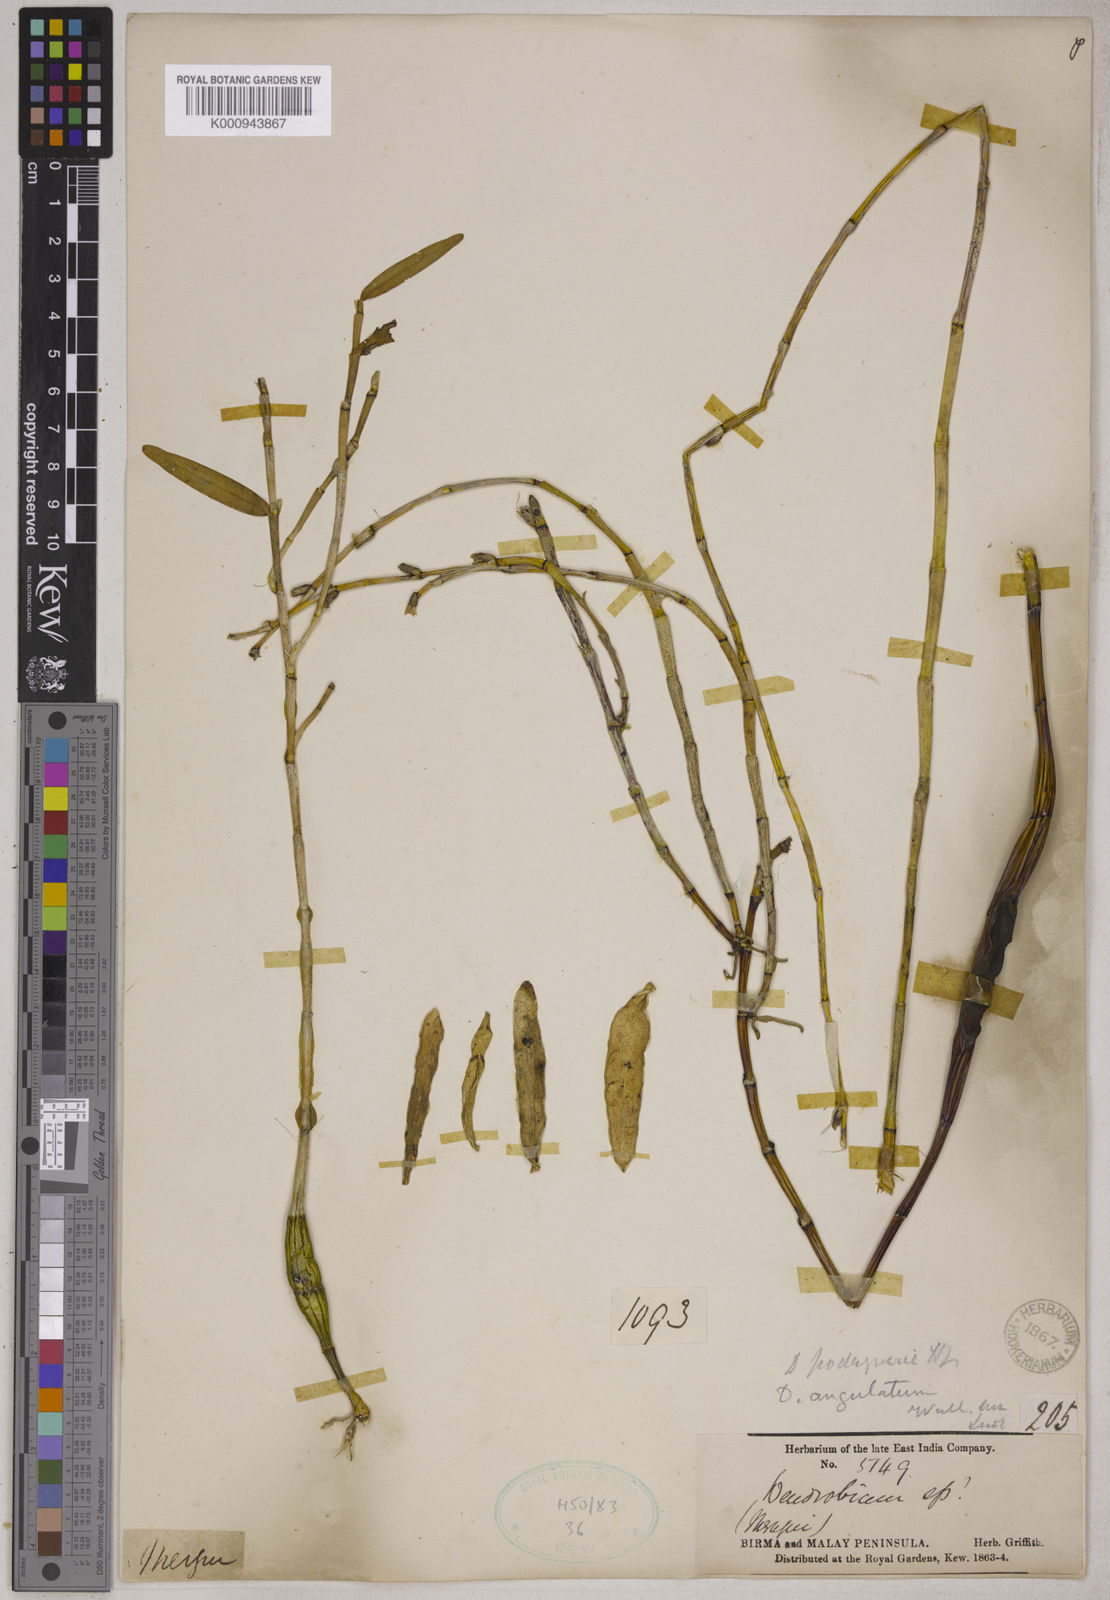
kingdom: Plantae
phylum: Tracheophyta
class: Liliopsida
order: Asparagales
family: Orchidaceae
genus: Dendrobium
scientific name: Dendrobium angulatum
